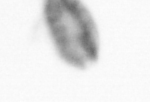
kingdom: Animalia
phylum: Arthropoda
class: Copepoda
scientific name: Copepoda
